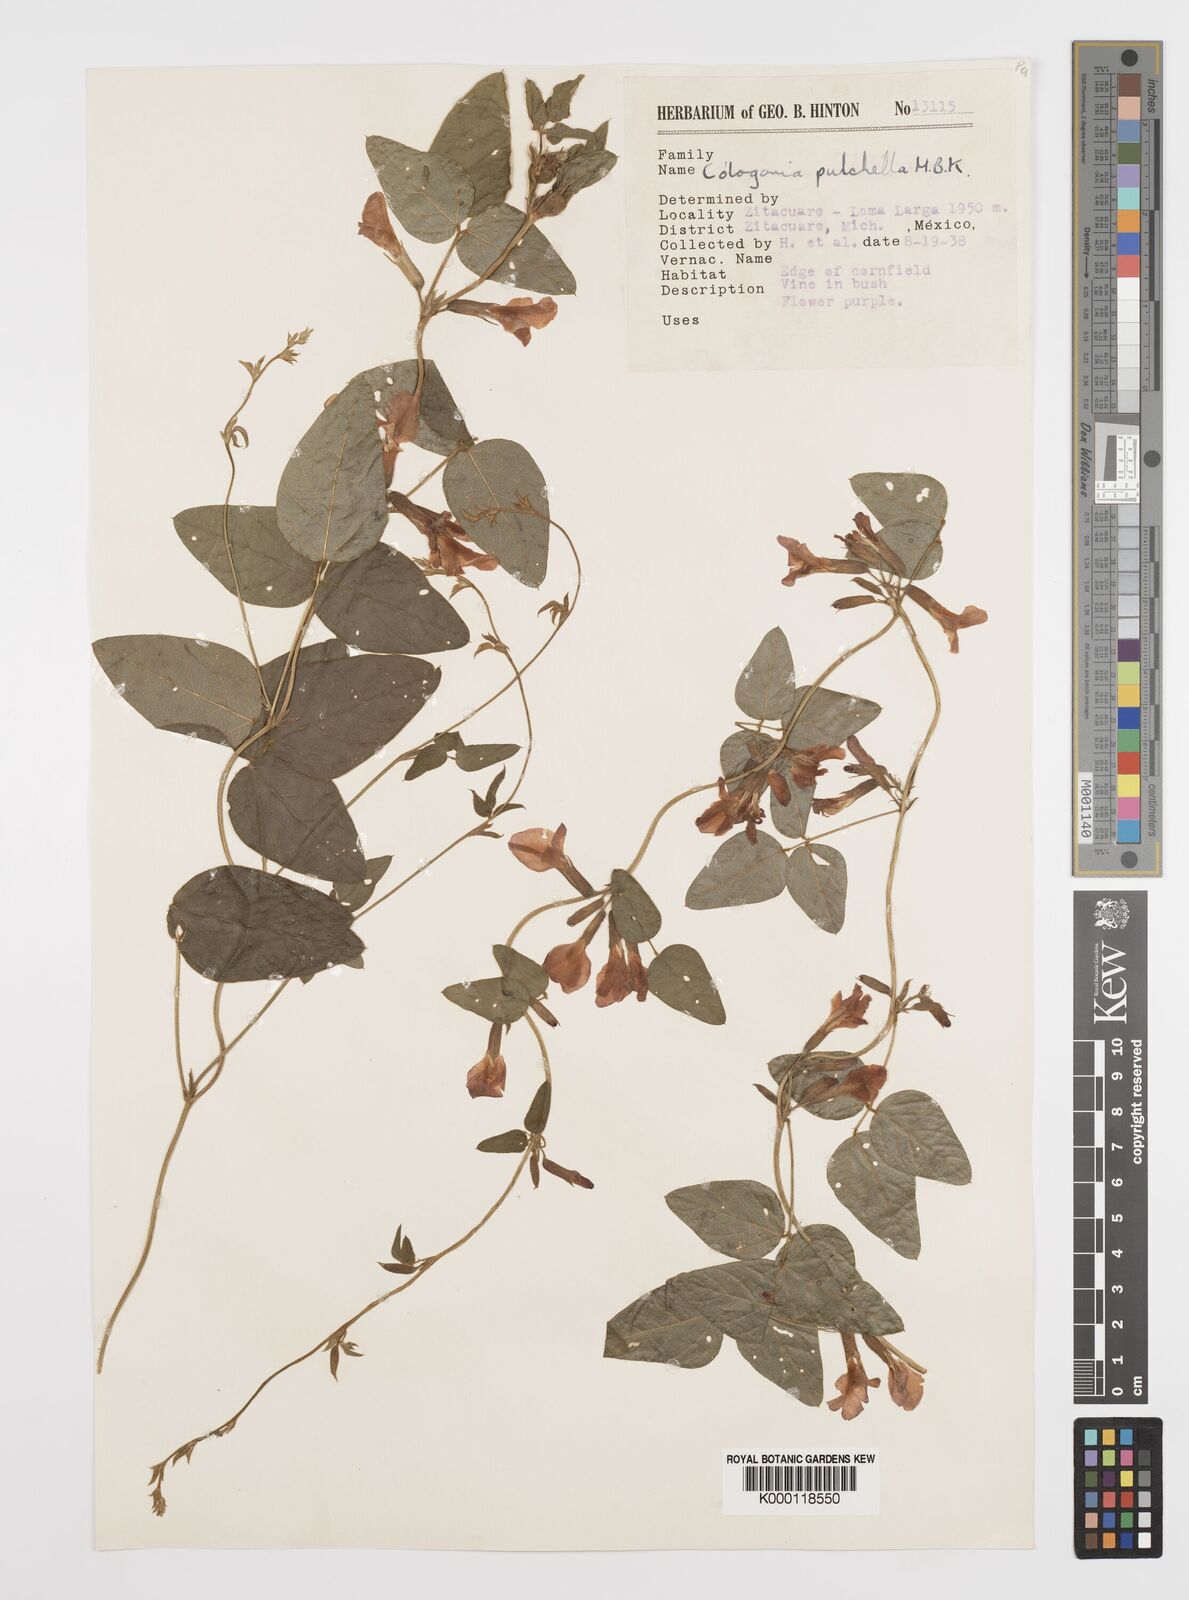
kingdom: Plantae
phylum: Tracheophyta
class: Magnoliopsida
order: Fabales
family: Fabaceae
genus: Cologania
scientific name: Cologania broussonetii
